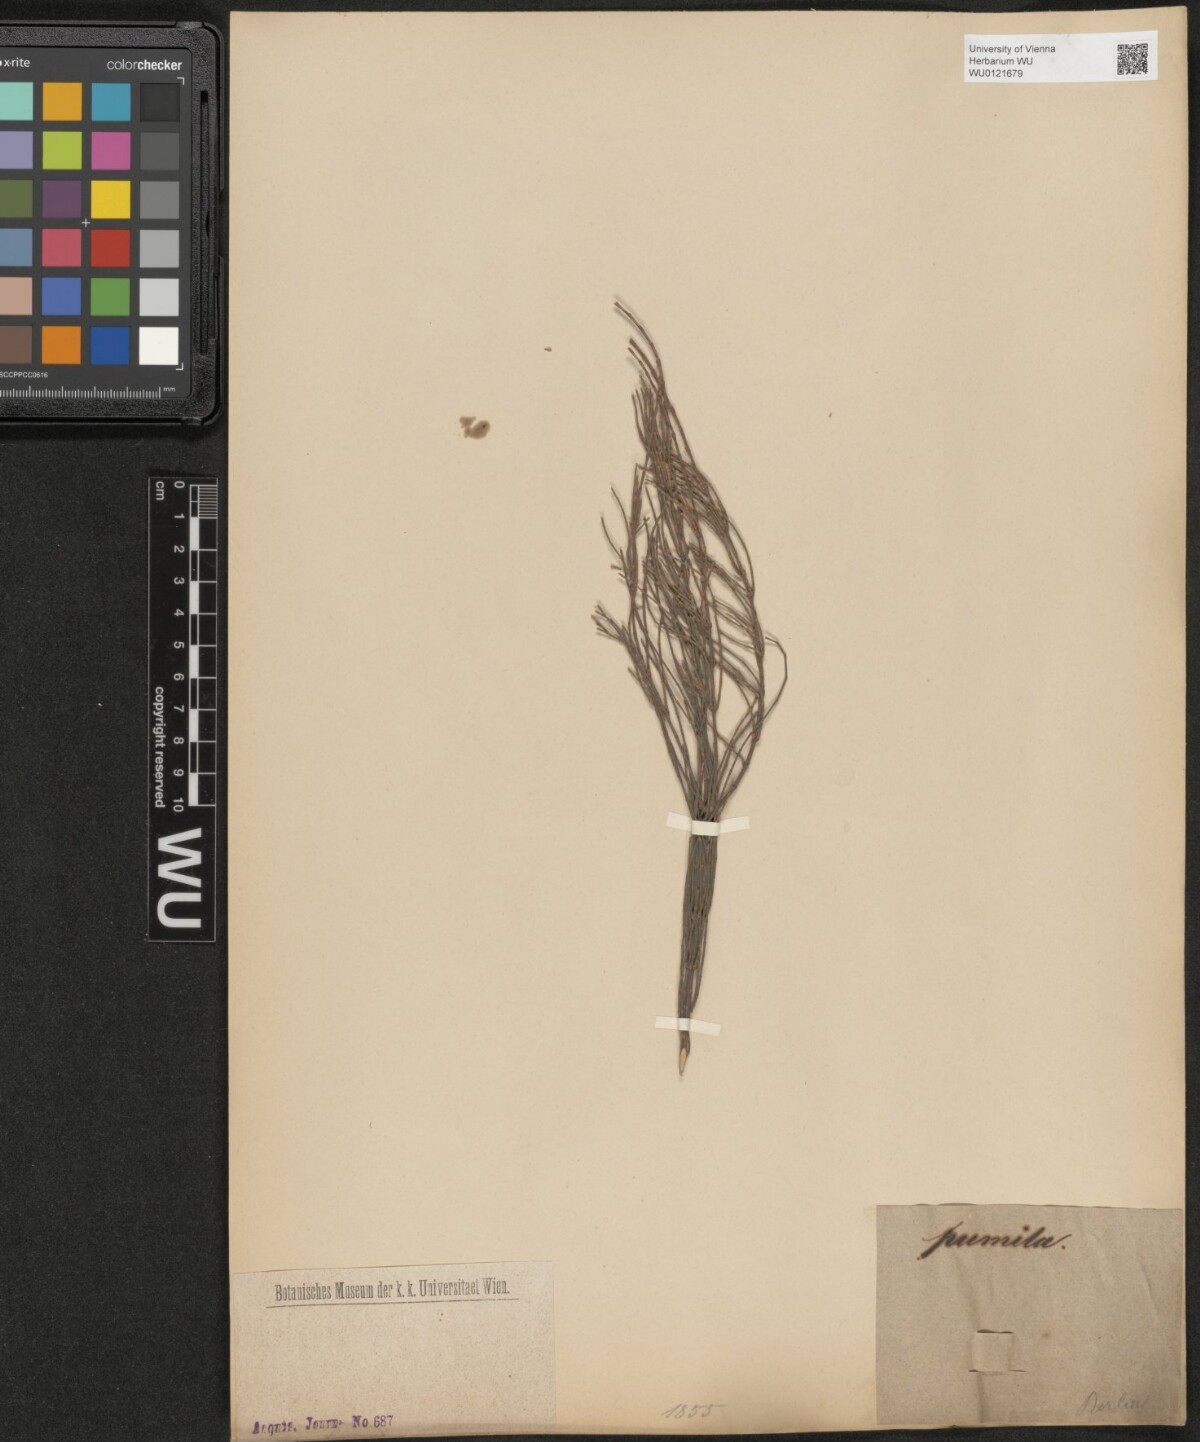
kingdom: Plantae
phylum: Tracheophyta
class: Magnoliopsida
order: Fagales
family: Casuarinaceae
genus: Allocasuarina
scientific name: Allocasuarina paludosa
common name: Scrub she-oak
